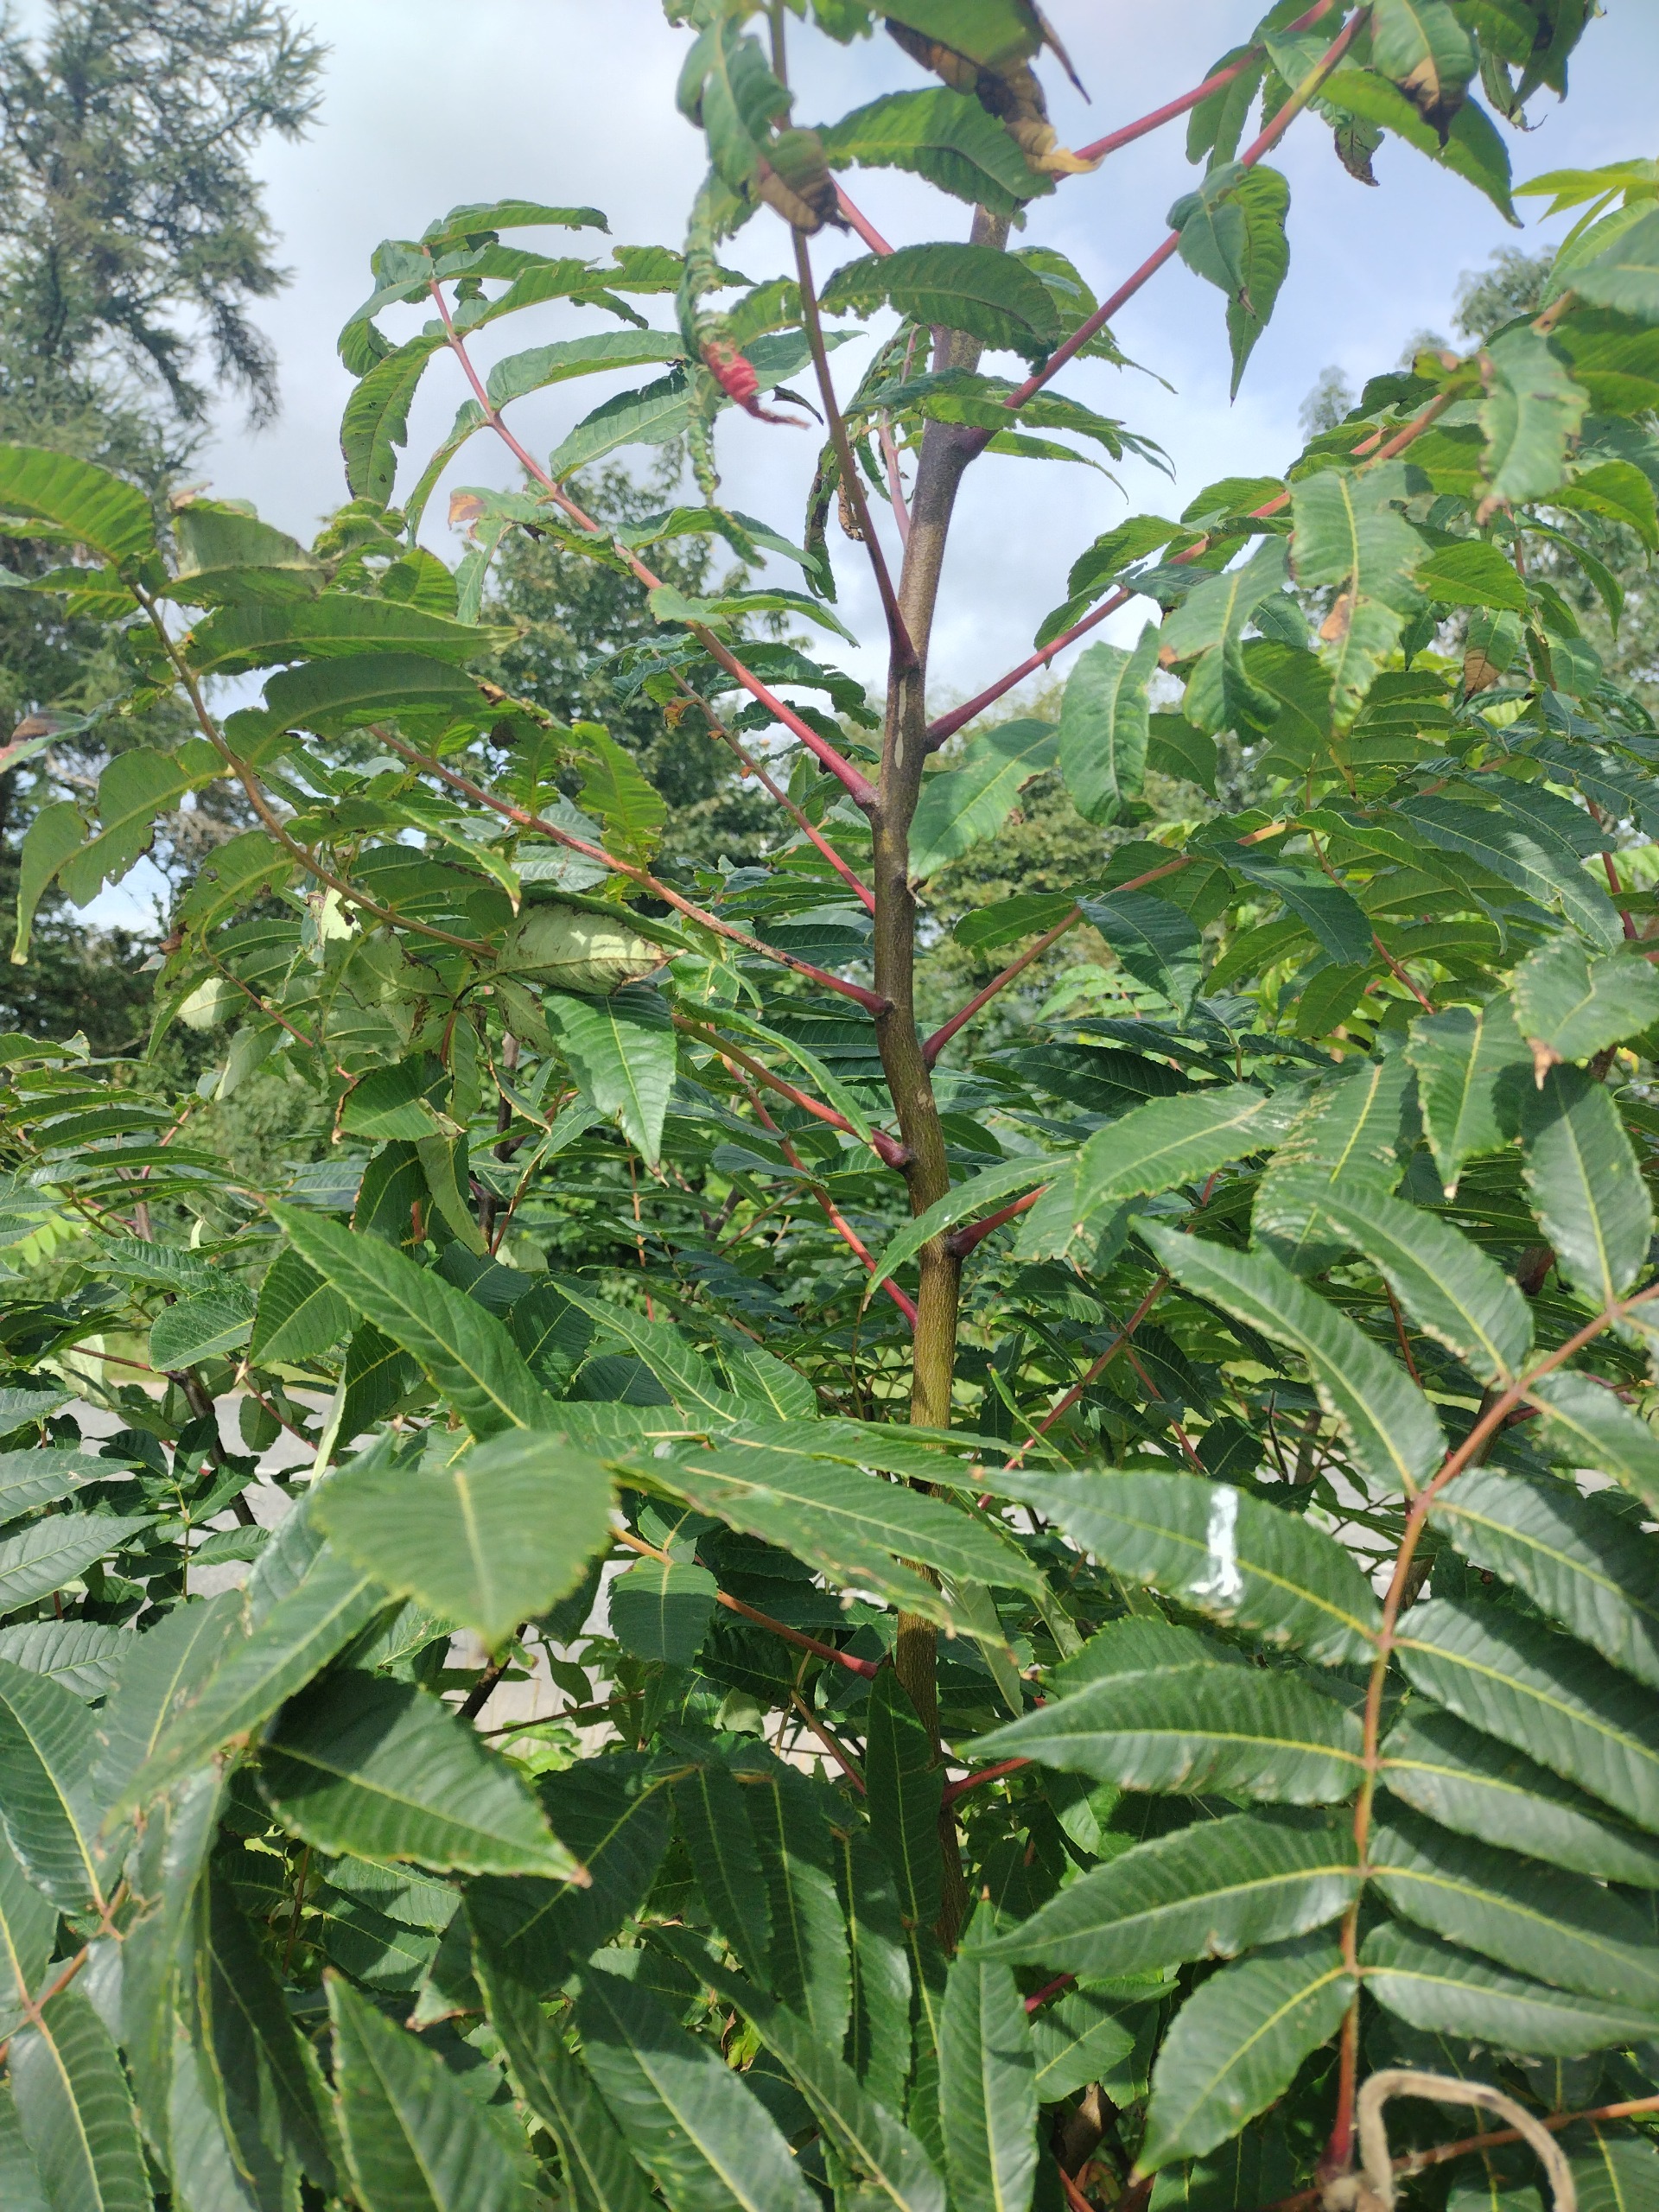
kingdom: Plantae
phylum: Tracheophyta
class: Magnoliopsida
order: Sapindales
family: Anacardiaceae
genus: Rhus
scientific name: Rhus typhina
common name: Hjortetaktræ
